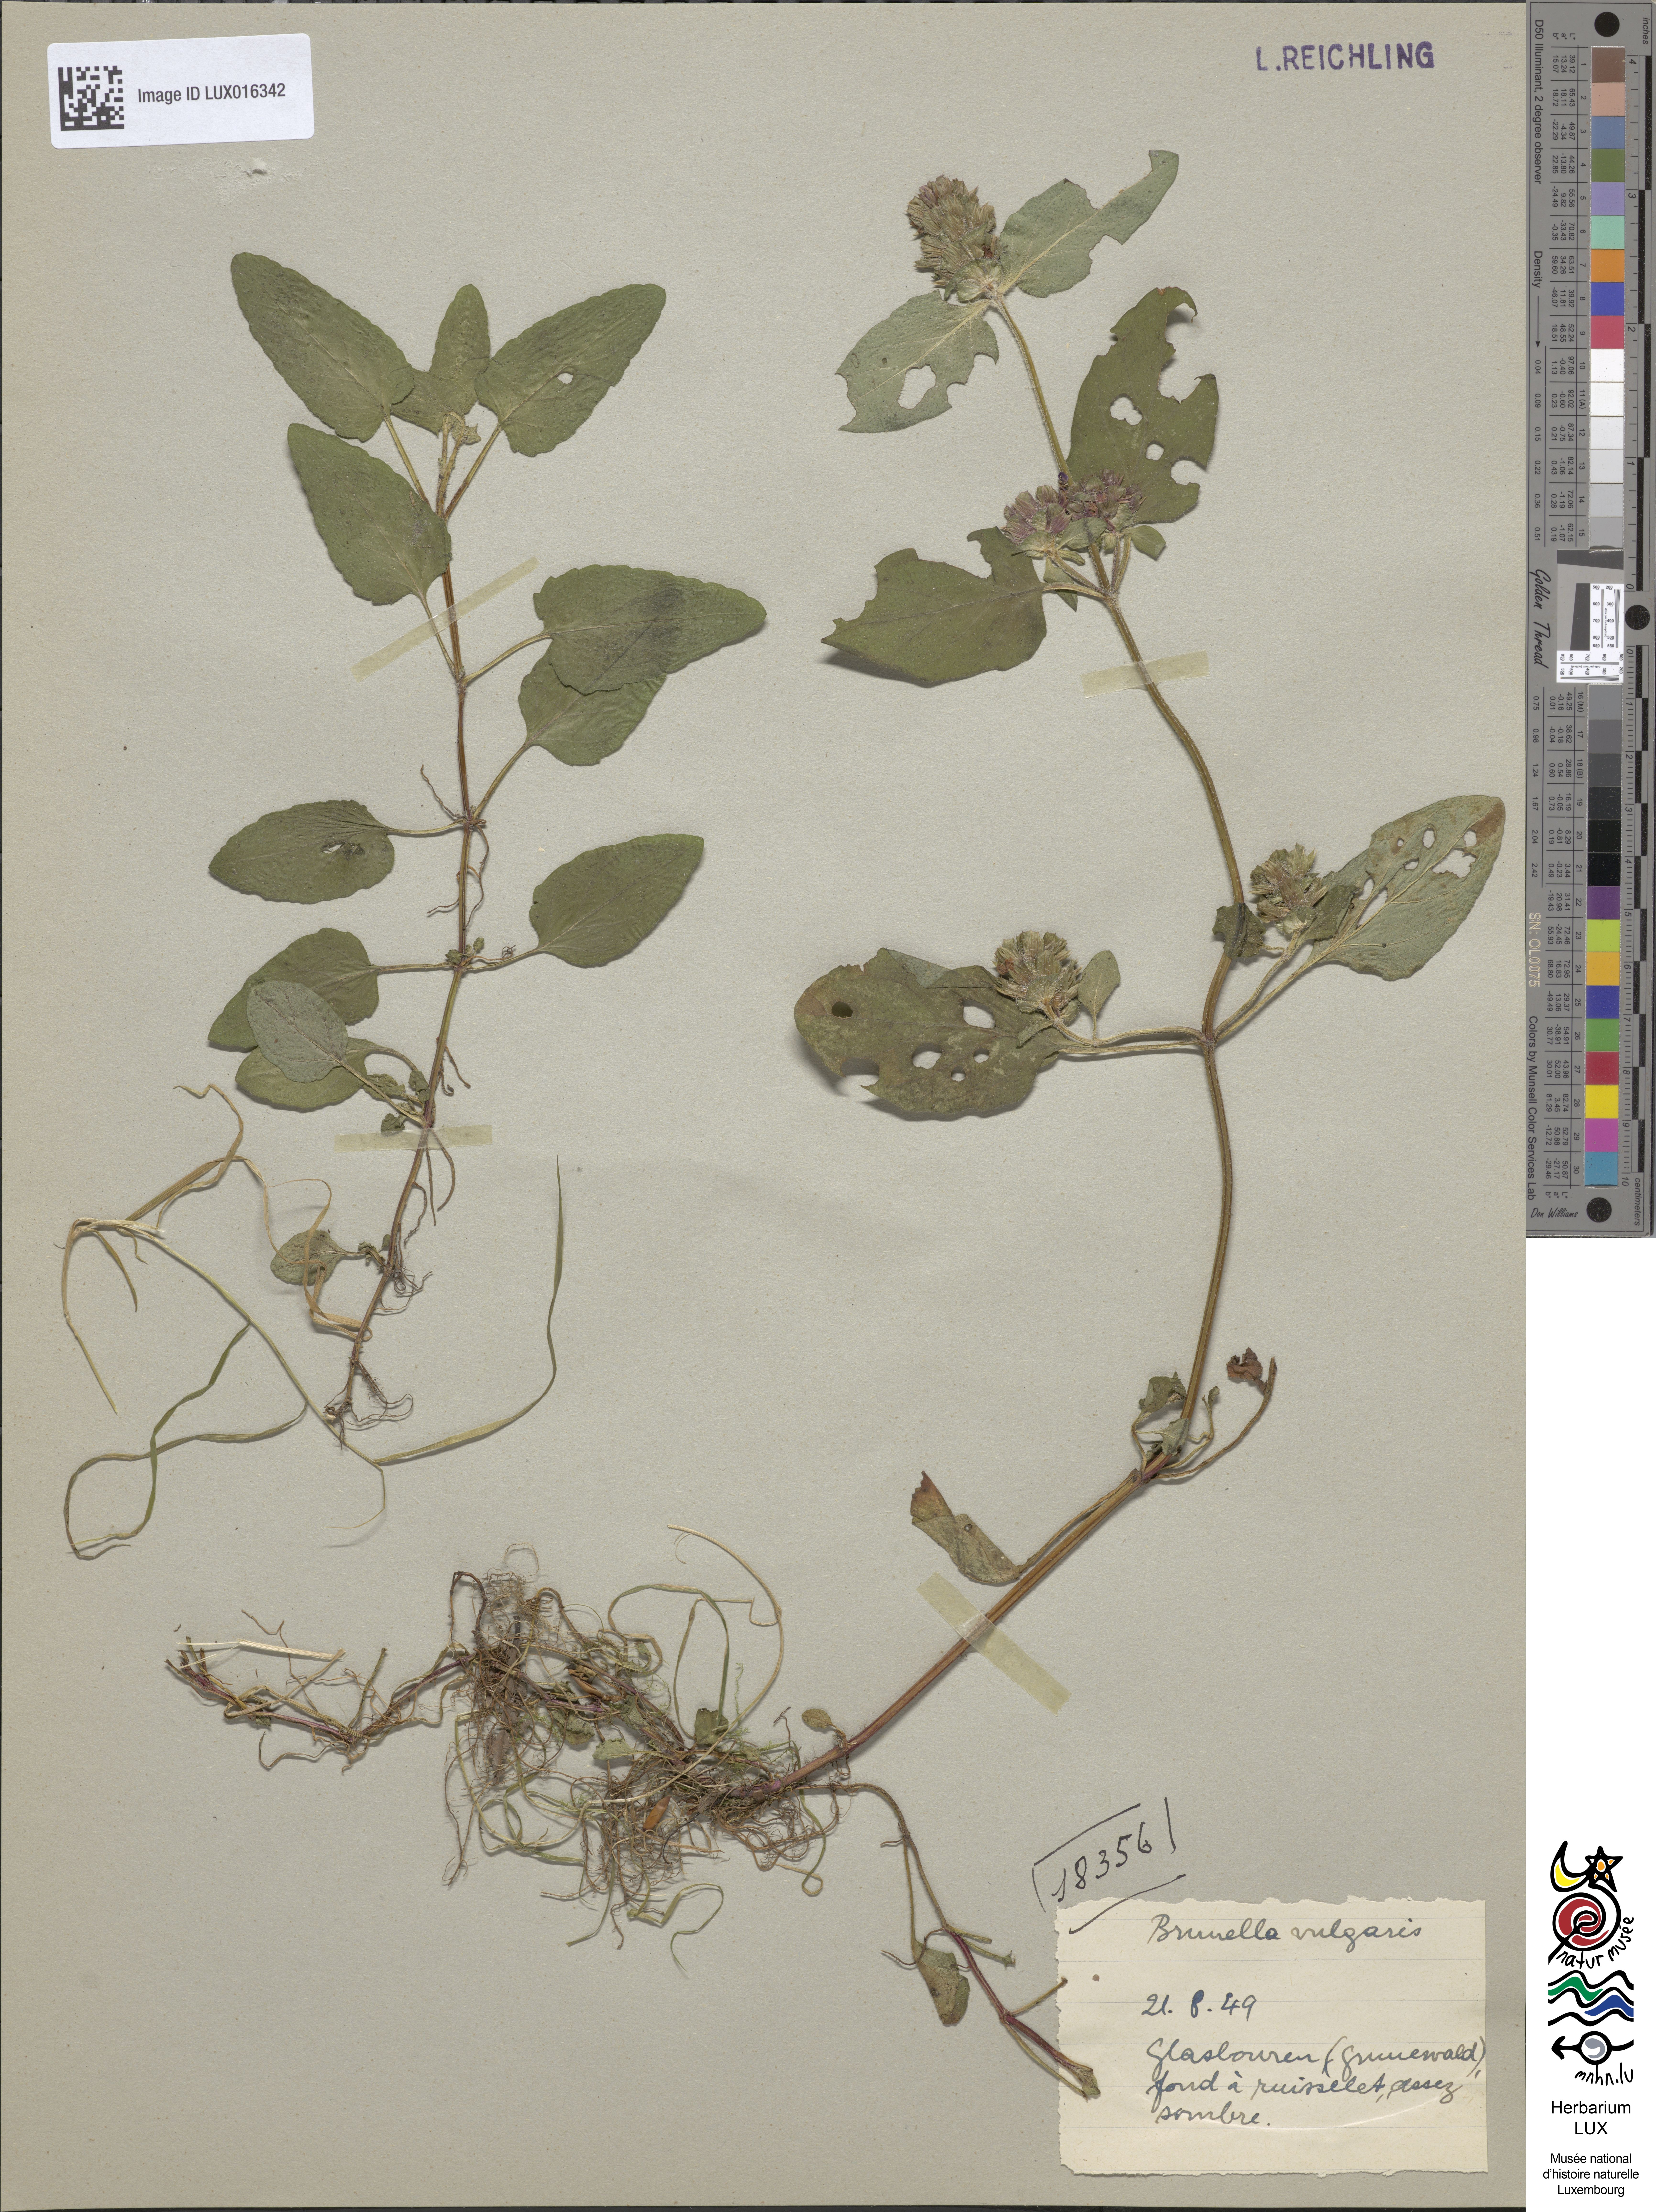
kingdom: Plantae
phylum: Tracheophyta
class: Magnoliopsida
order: Lamiales
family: Lamiaceae
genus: Prunella
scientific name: Prunella vulgaris
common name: Heal-all
